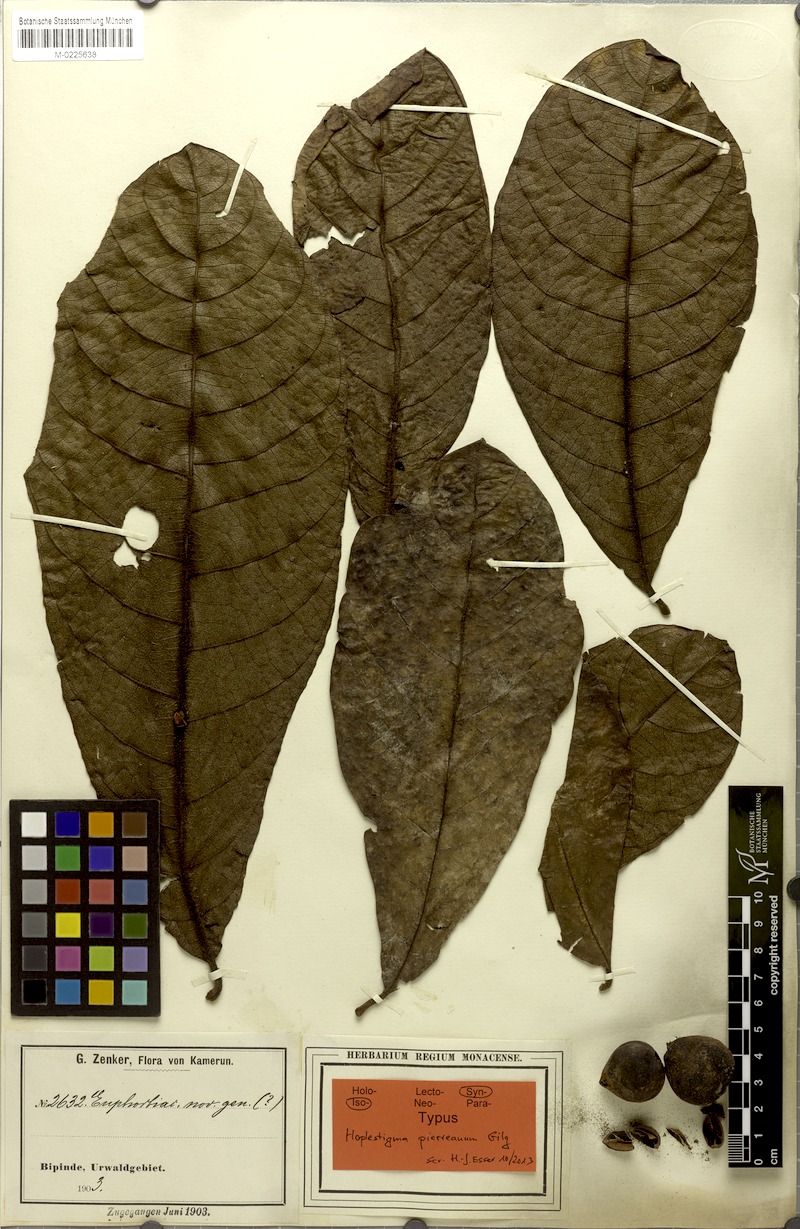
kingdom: Plantae
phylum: Tracheophyta
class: Magnoliopsida
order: Boraginales
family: Hoplestigmataceae
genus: Hoplestigma
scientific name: Hoplestigma pierreanum
